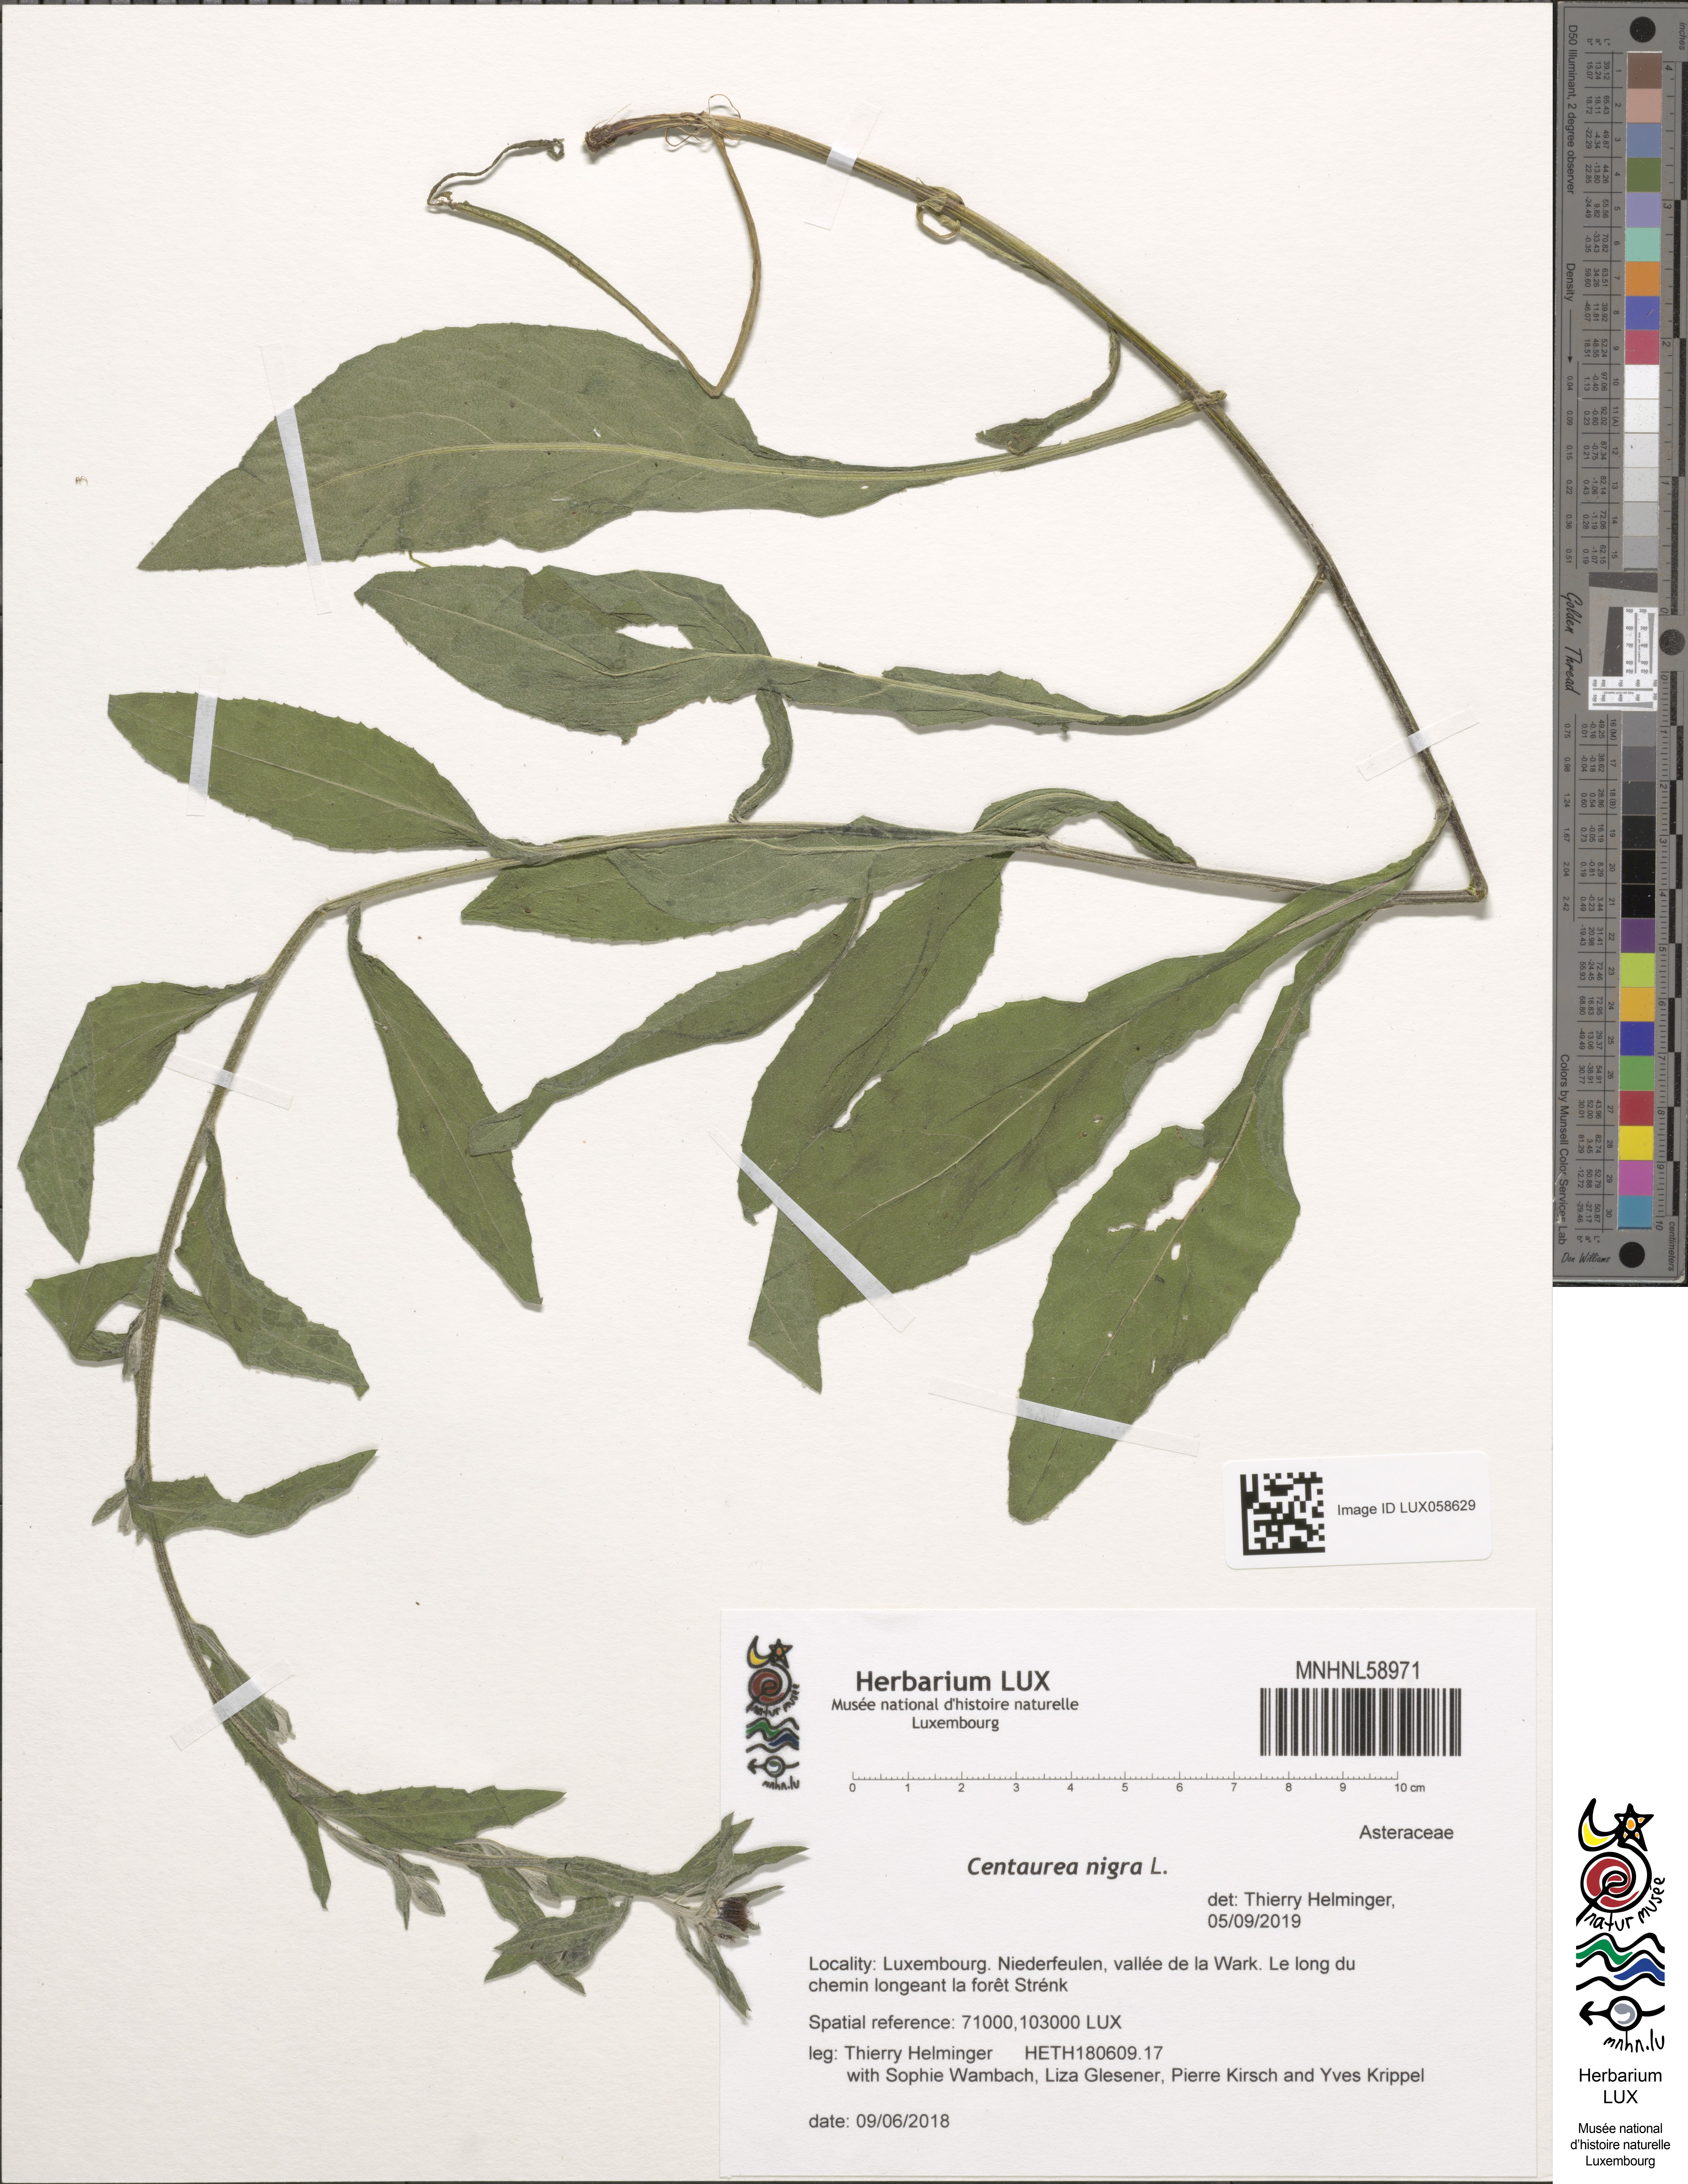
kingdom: Plantae
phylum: Tracheophyta
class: Magnoliopsida
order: Asterales
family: Asteraceae
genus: Centaurea
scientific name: Centaurea nigra
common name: Lesser knapweed
